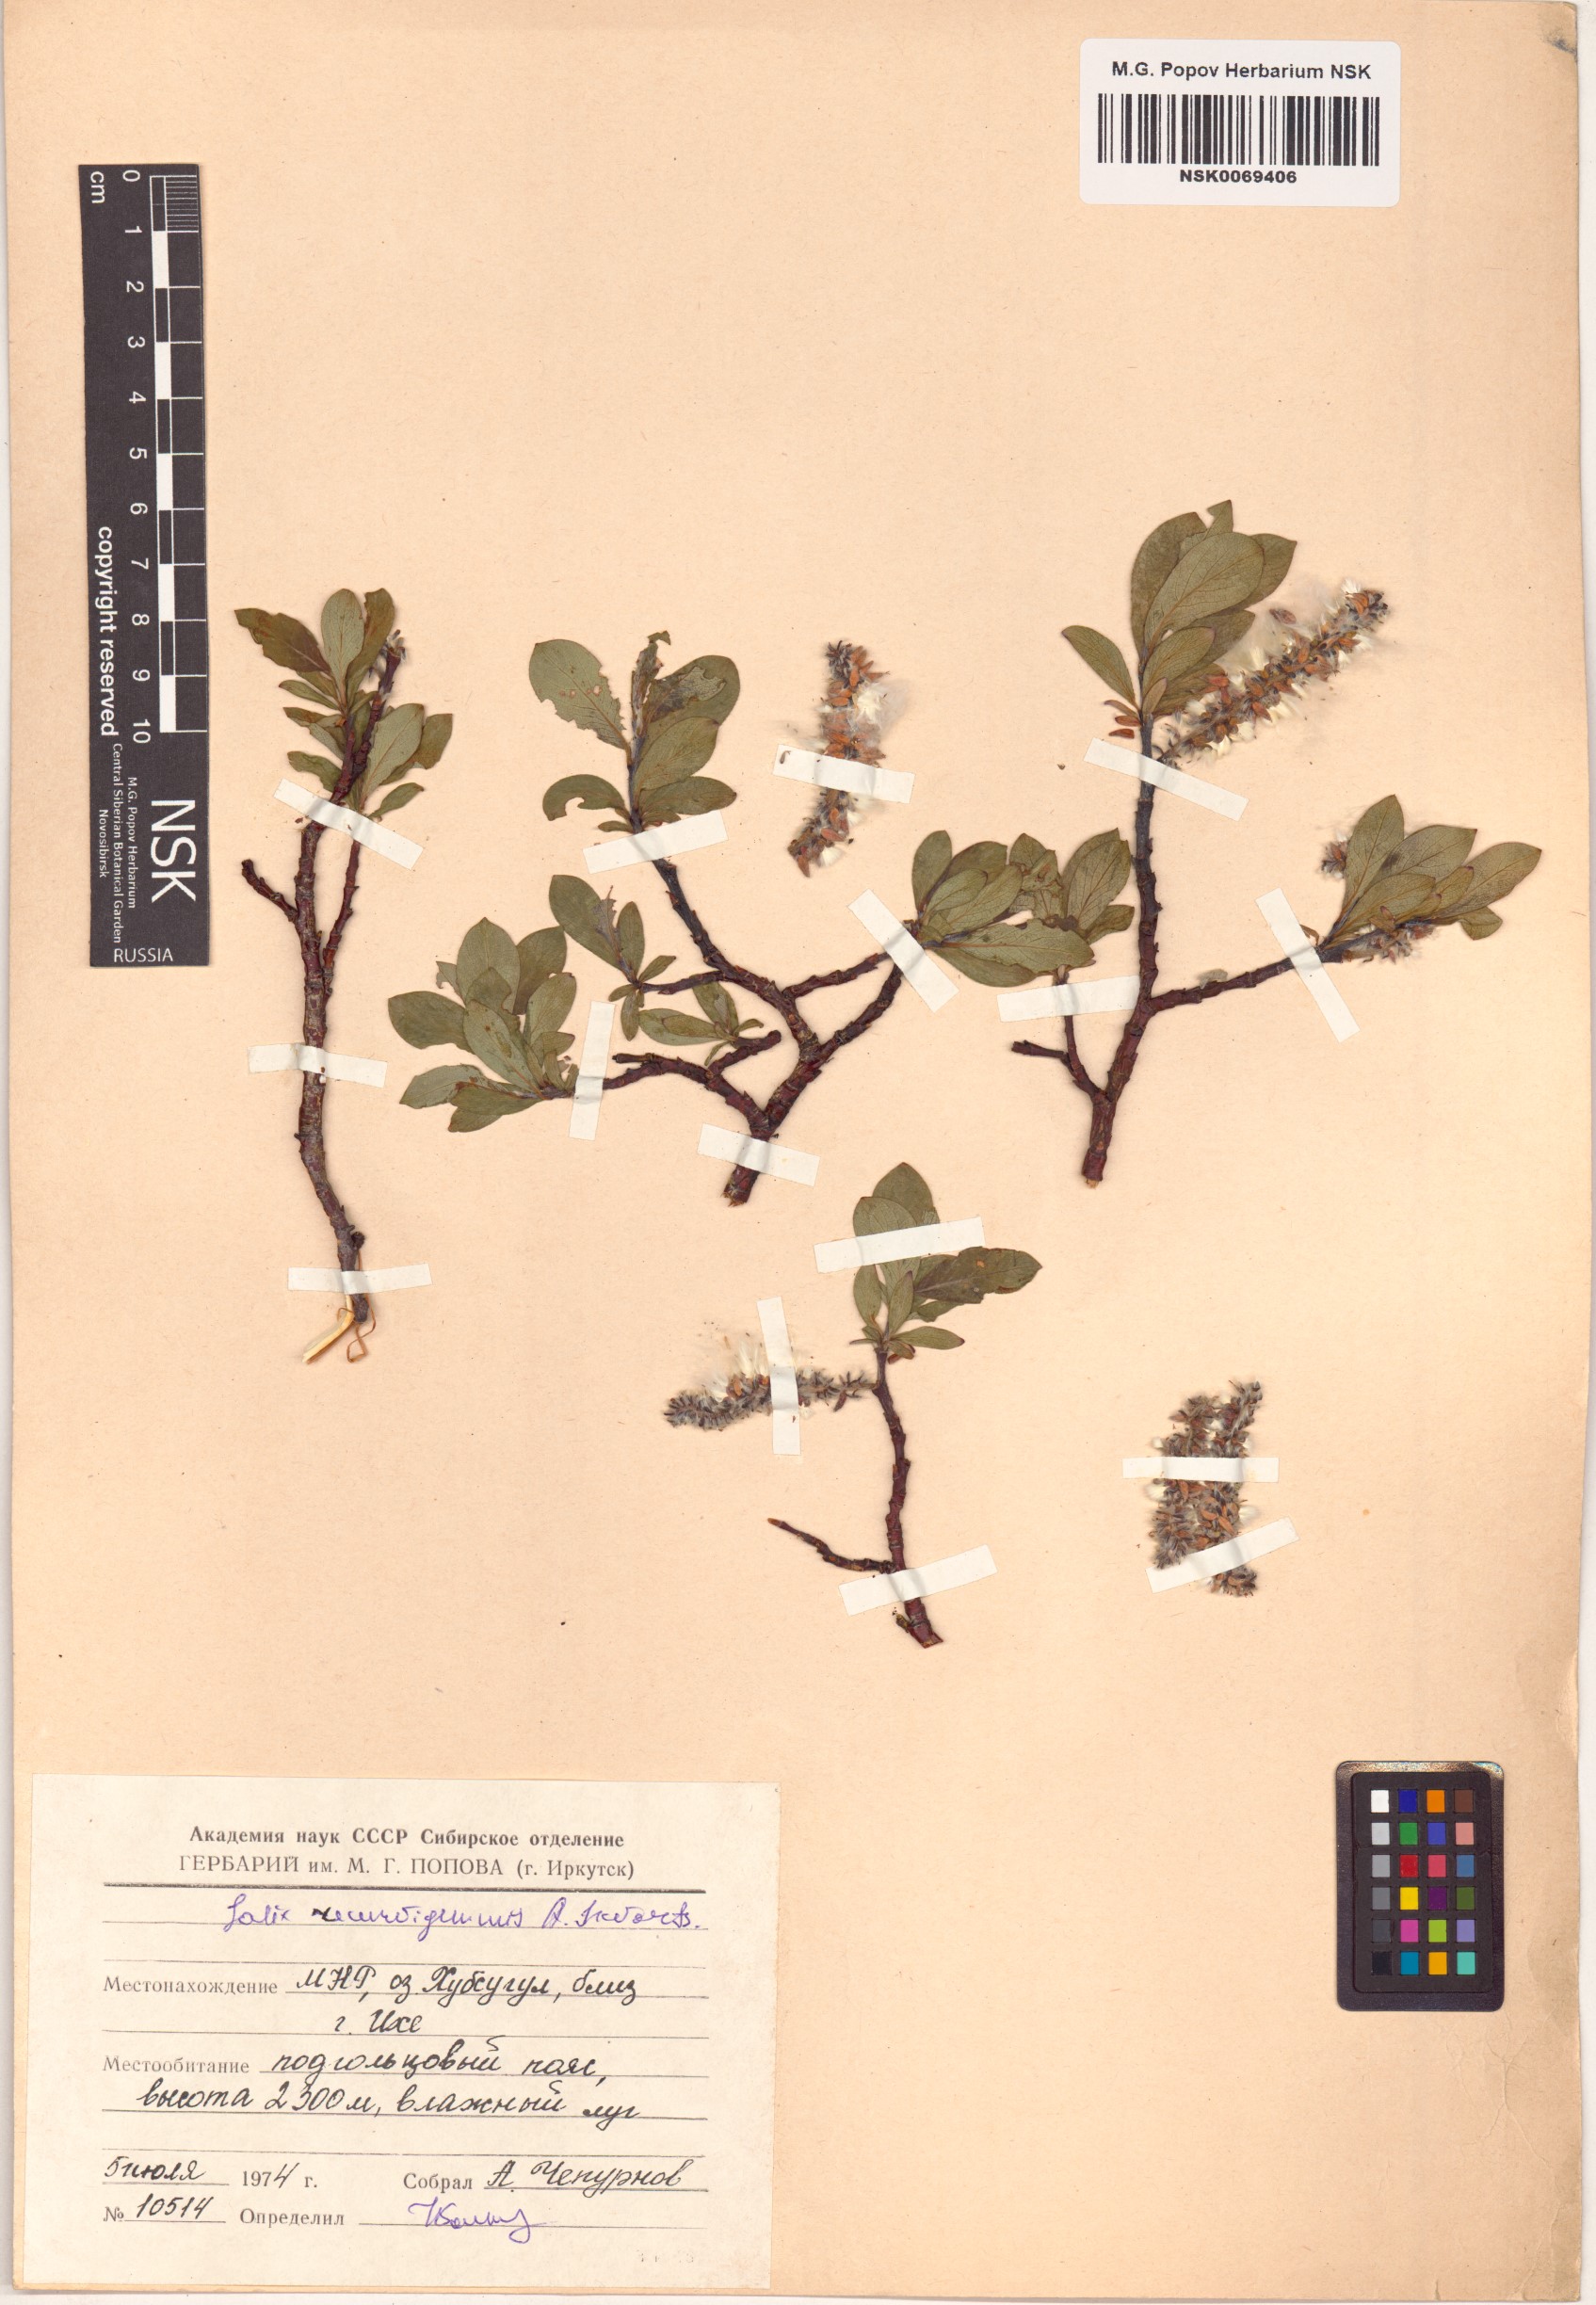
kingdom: Plantae
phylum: Tracheophyta
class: Magnoliopsida
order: Malpighiales
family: Salicaceae
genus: Salix
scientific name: Salix recurvigemmata
